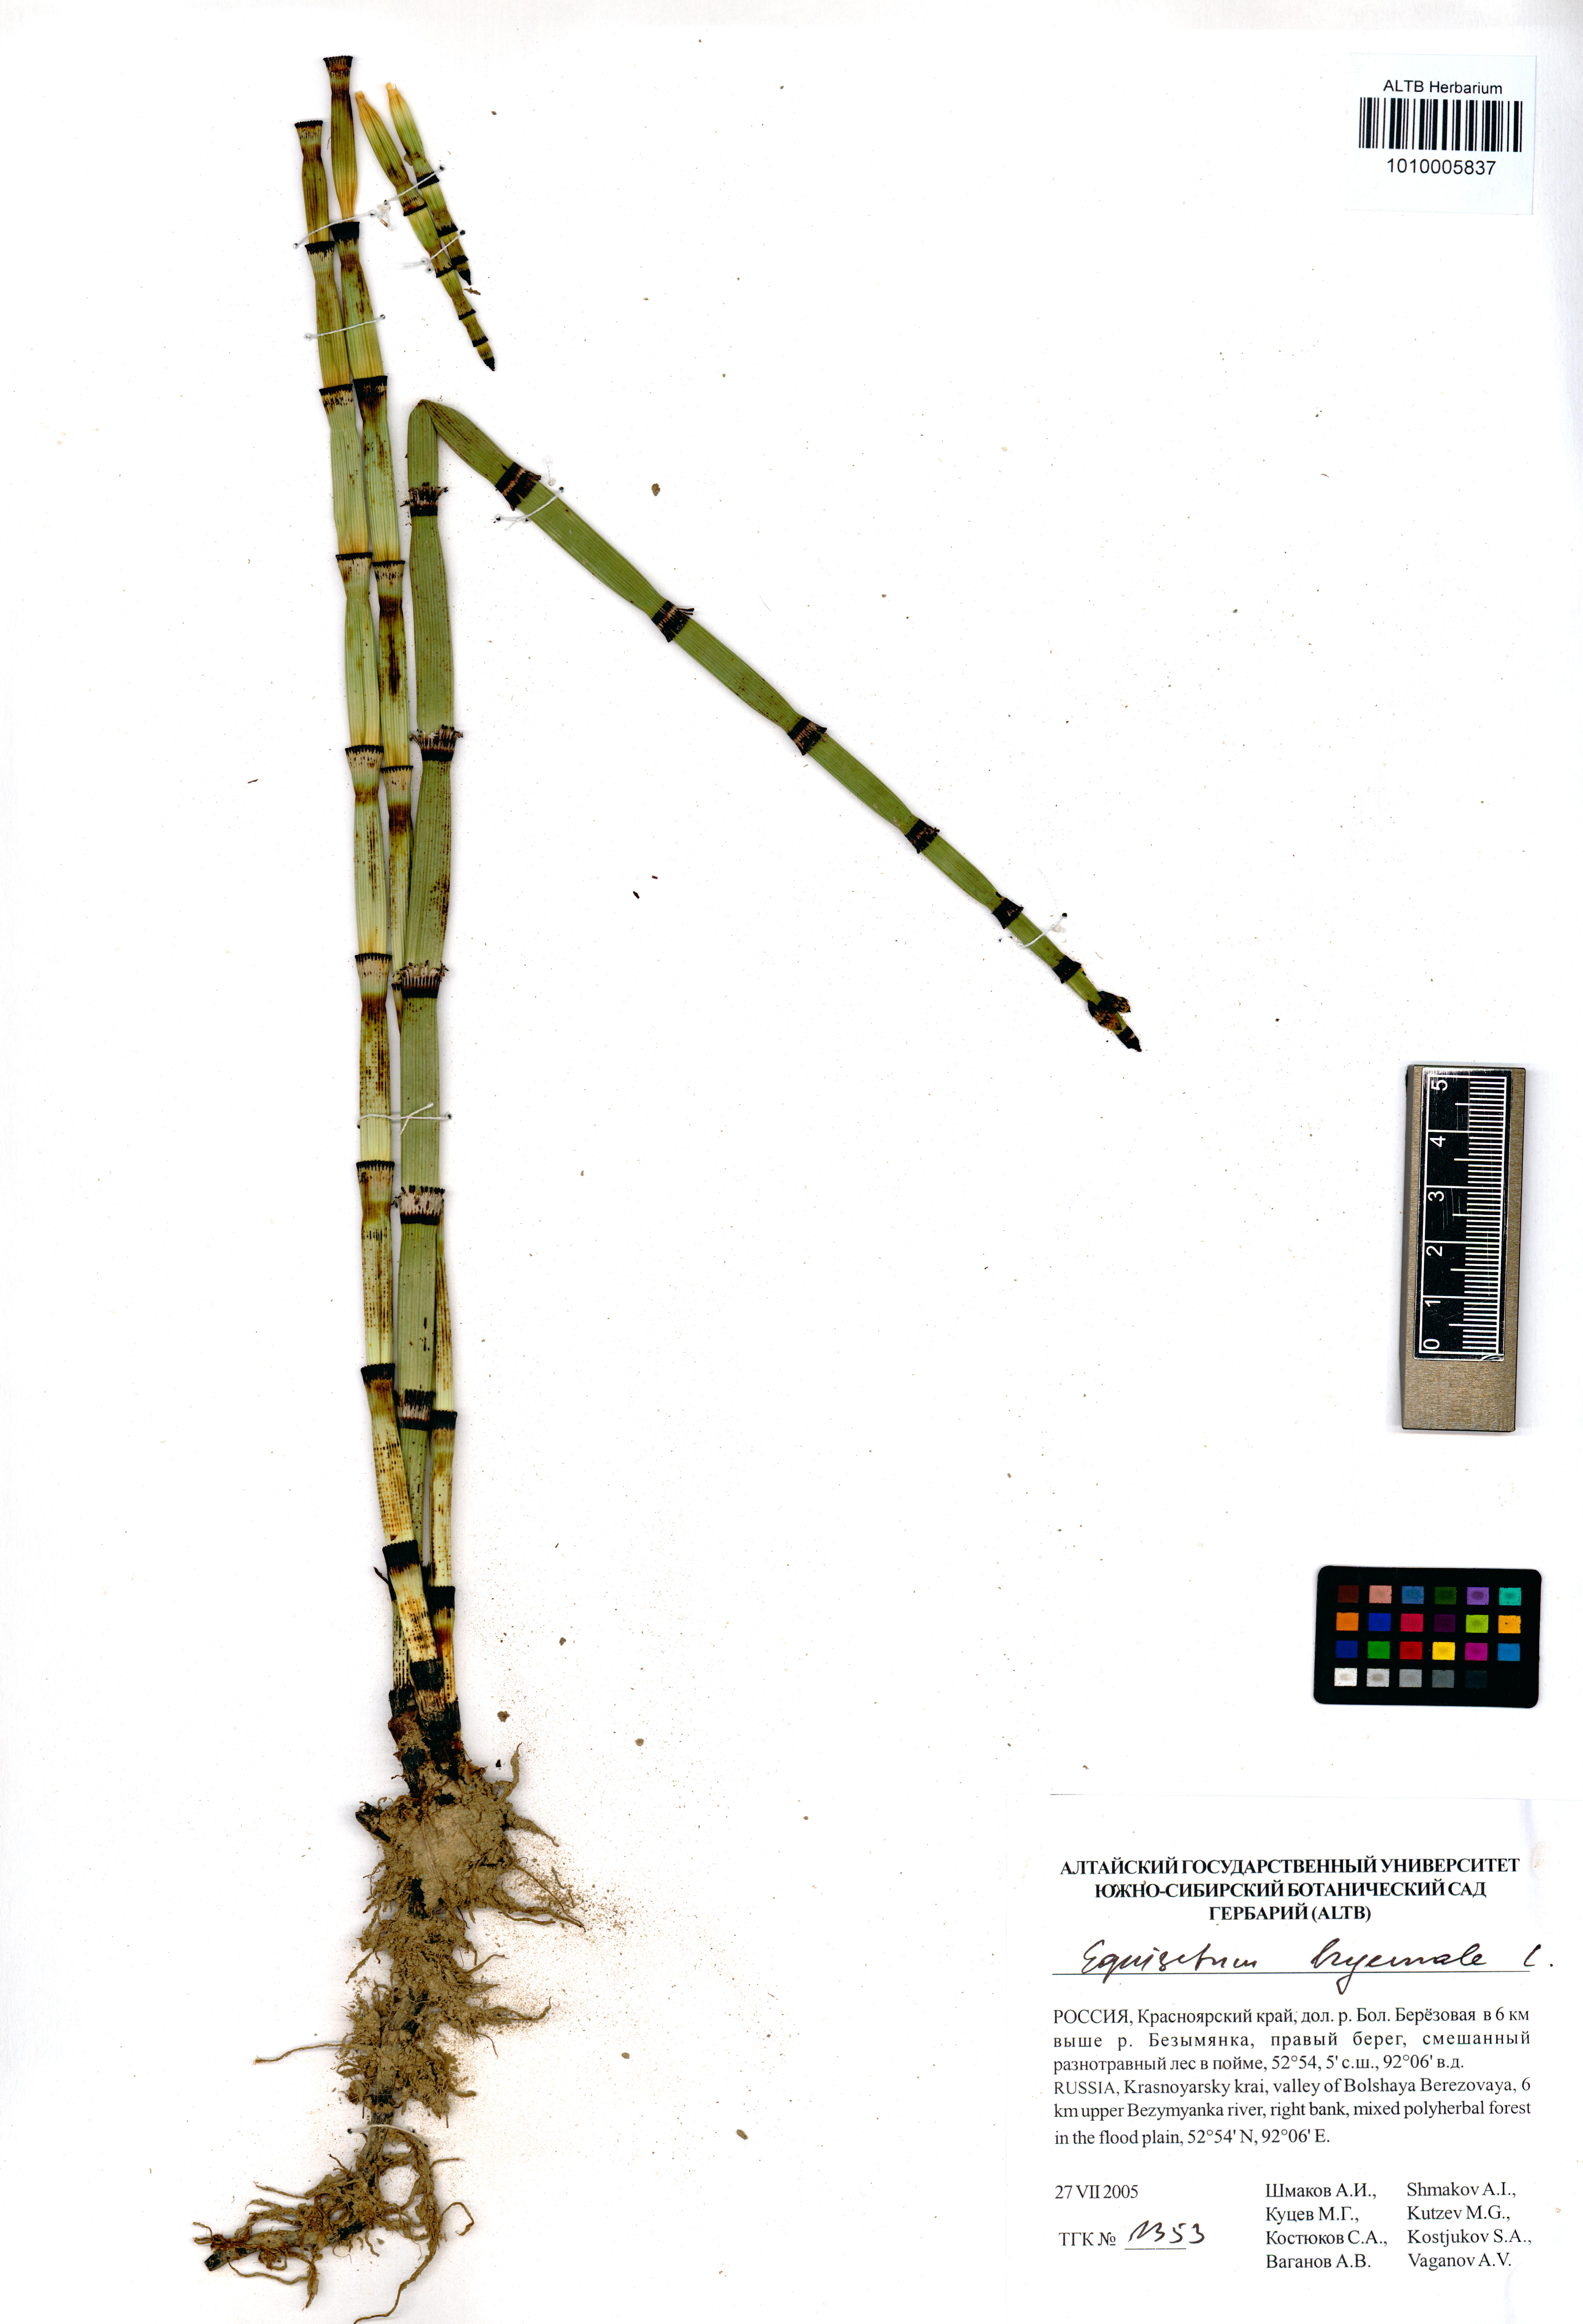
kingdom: Plantae
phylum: Tracheophyta
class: Polypodiopsida
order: Equisetales
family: Equisetaceae
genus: Equisetum
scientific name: Equisetum hyemale
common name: Rough horsetail
